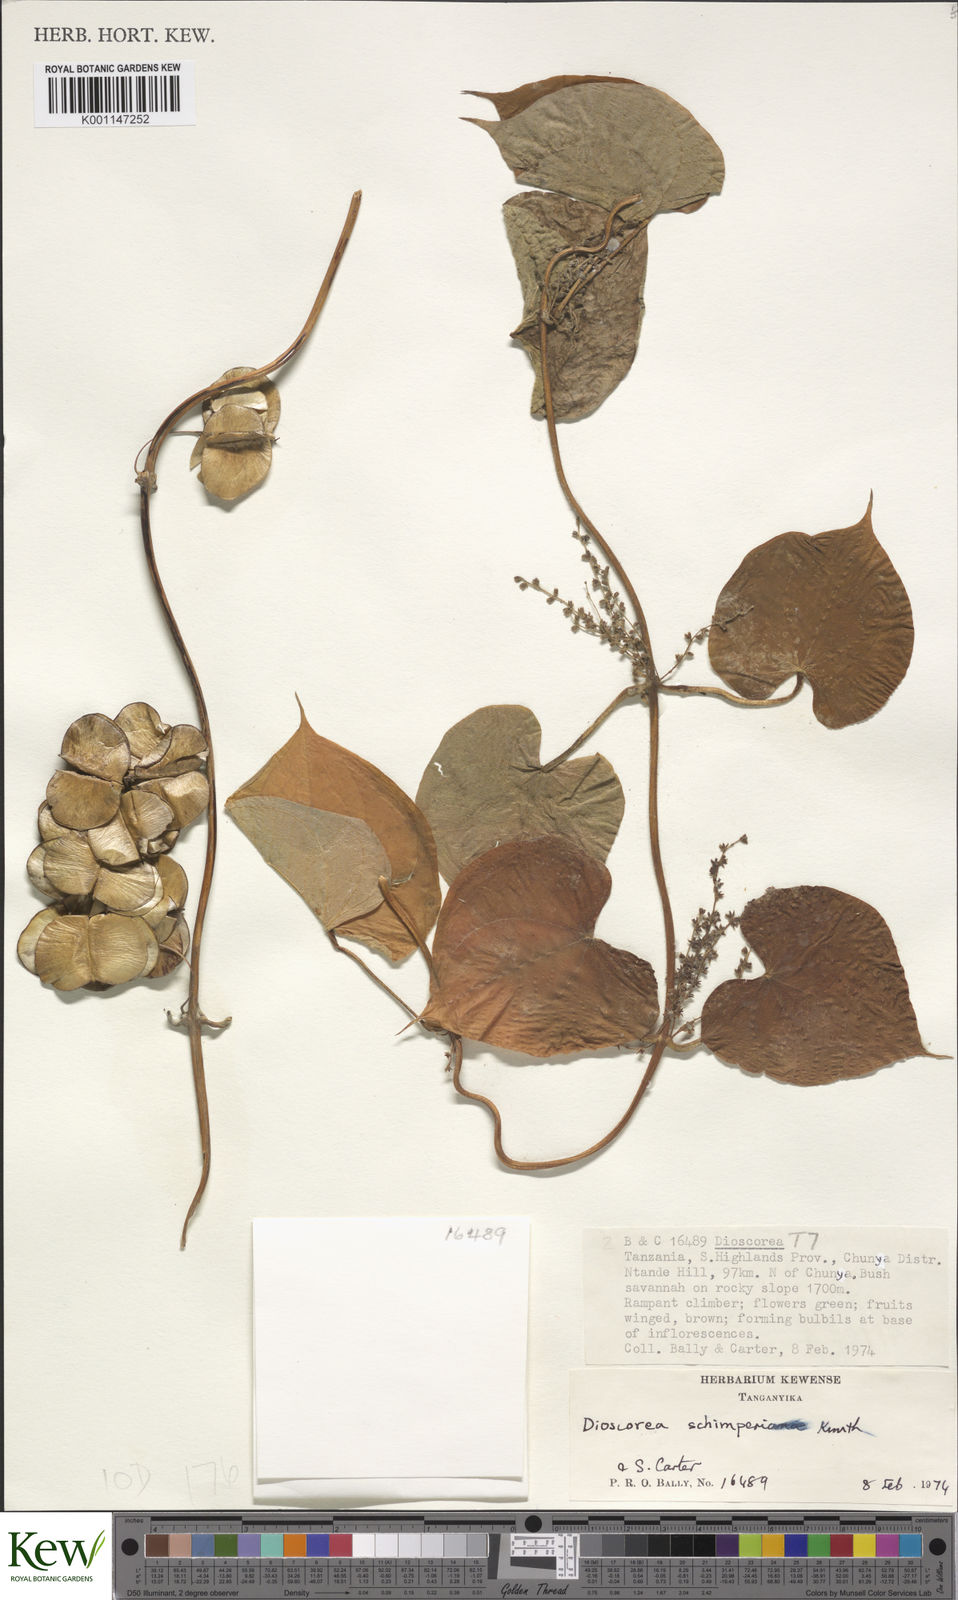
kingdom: Plantae
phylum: Tracheophyta
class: Liliopsida
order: Dioscoreales
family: Dioscoreaceae
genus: Dioscorea
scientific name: Dioscorea schimperiana
